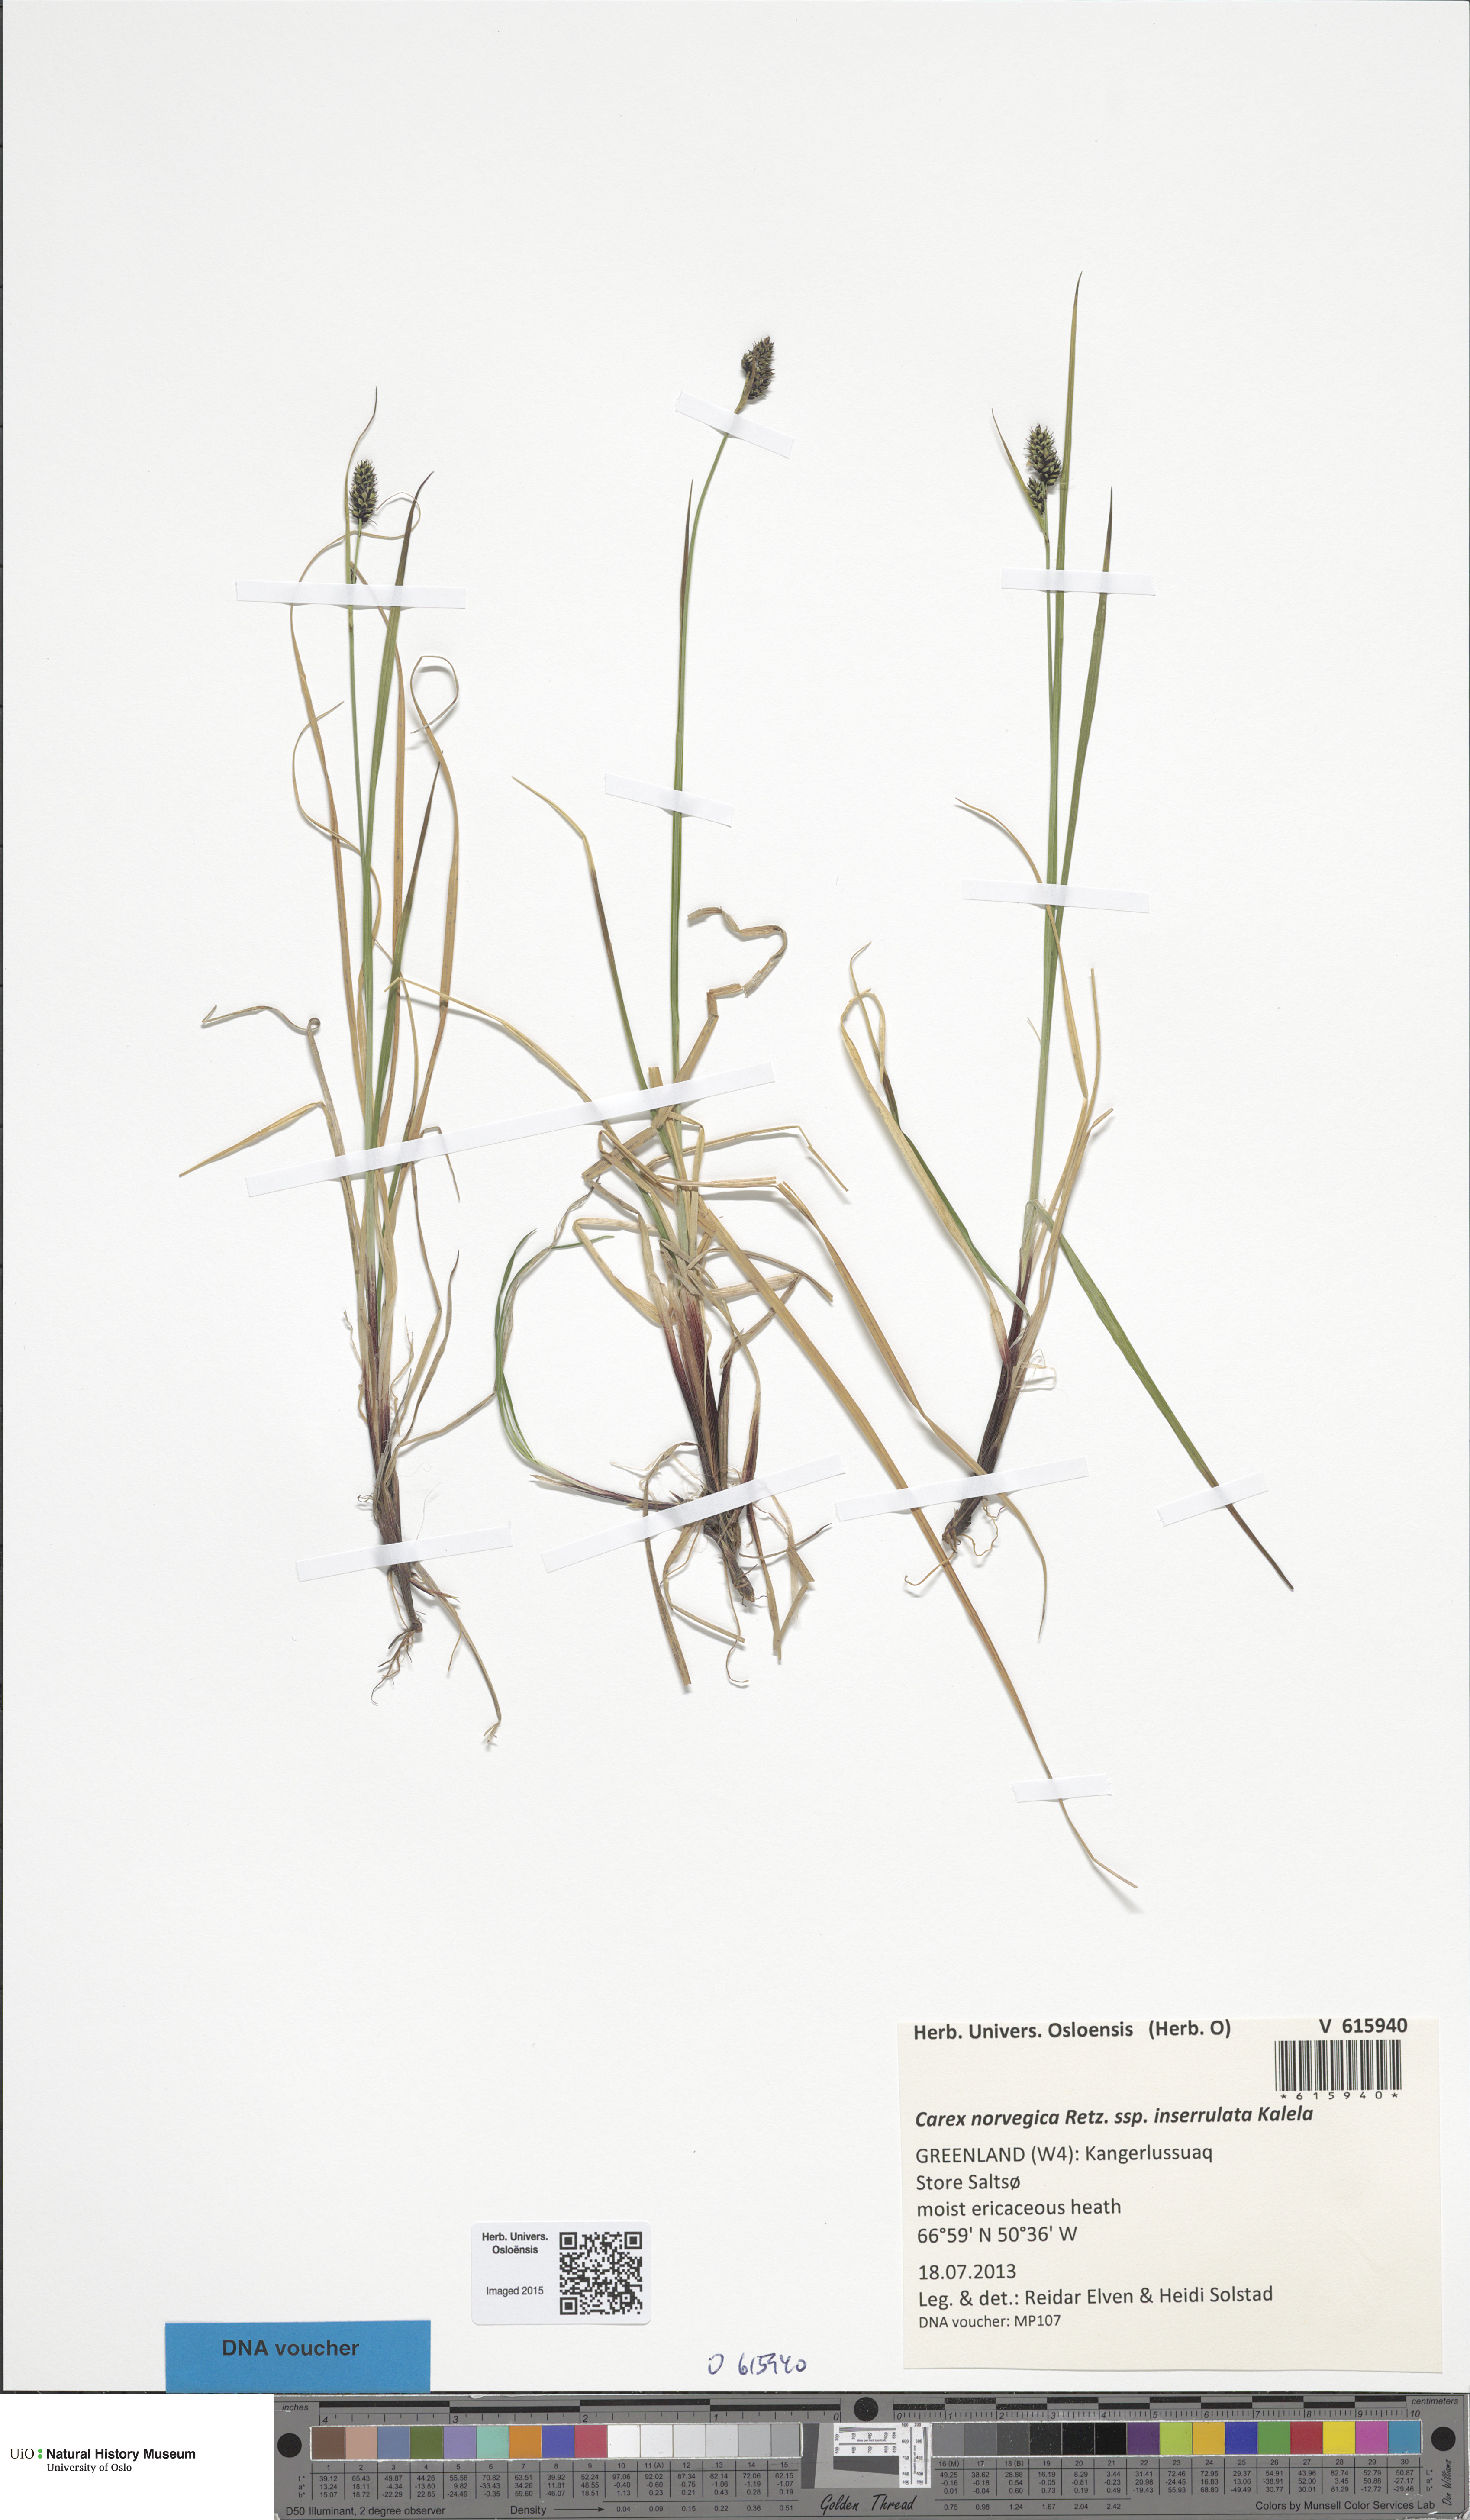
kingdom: Plantae
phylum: Tracheophyta
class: Liliopsida
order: Poales
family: Cyperaceae
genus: Carex
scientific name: Carex norvegica
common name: Close-headed alpine-sedge
